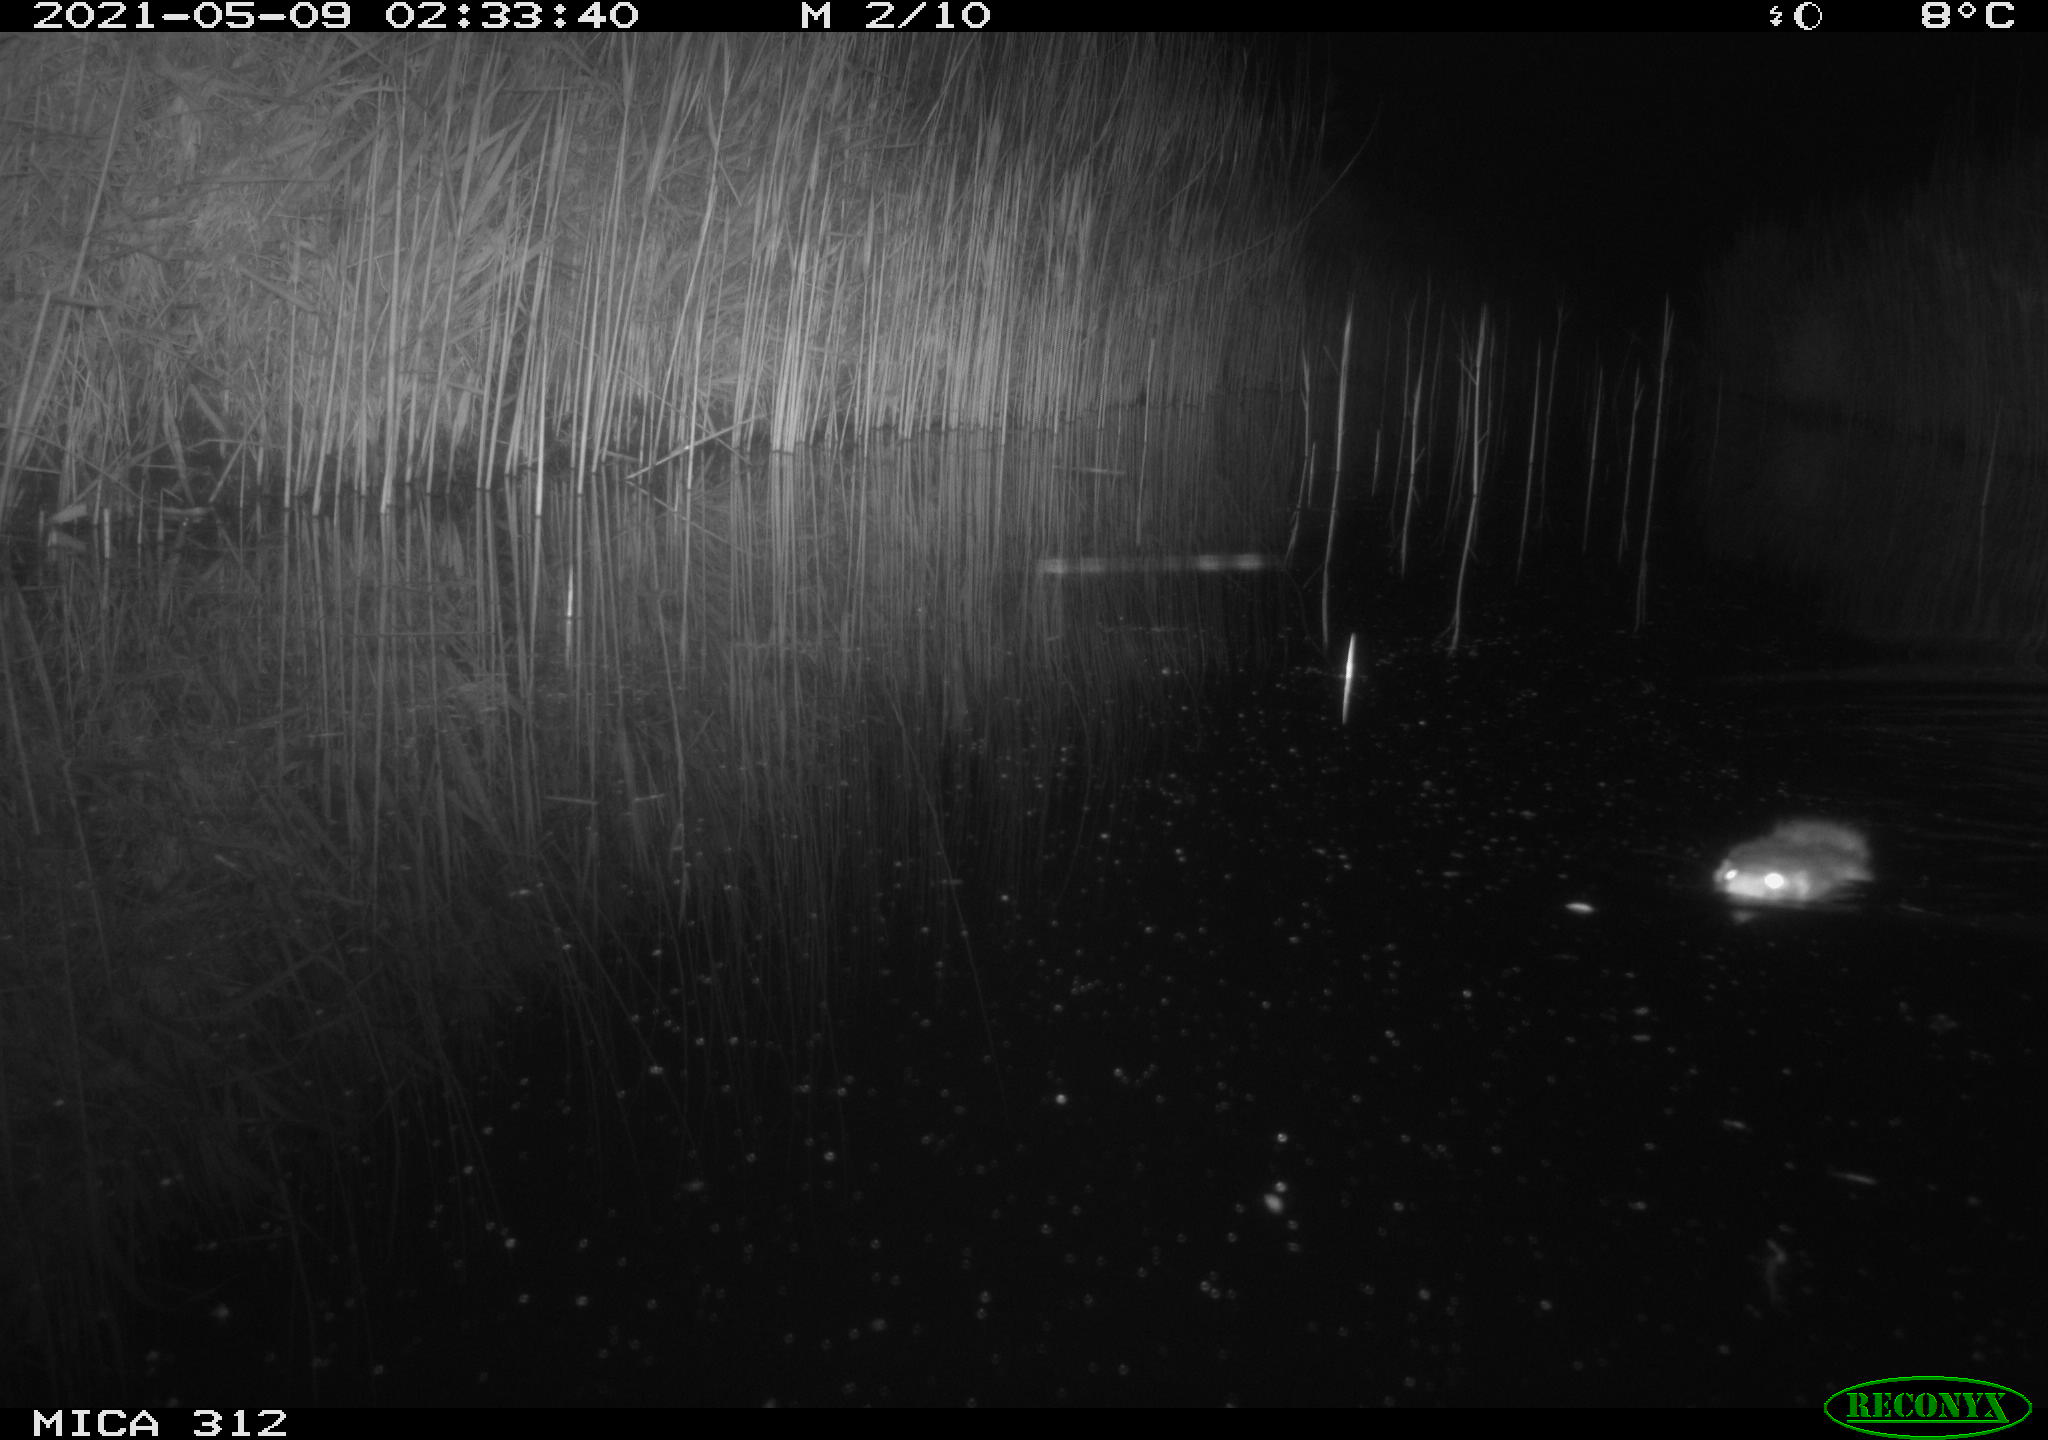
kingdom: Animalia
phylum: Chordata
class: Mammalia
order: Rodentia
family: Muridae
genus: Rattus
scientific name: Rattus norvegicus
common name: Brown rat
